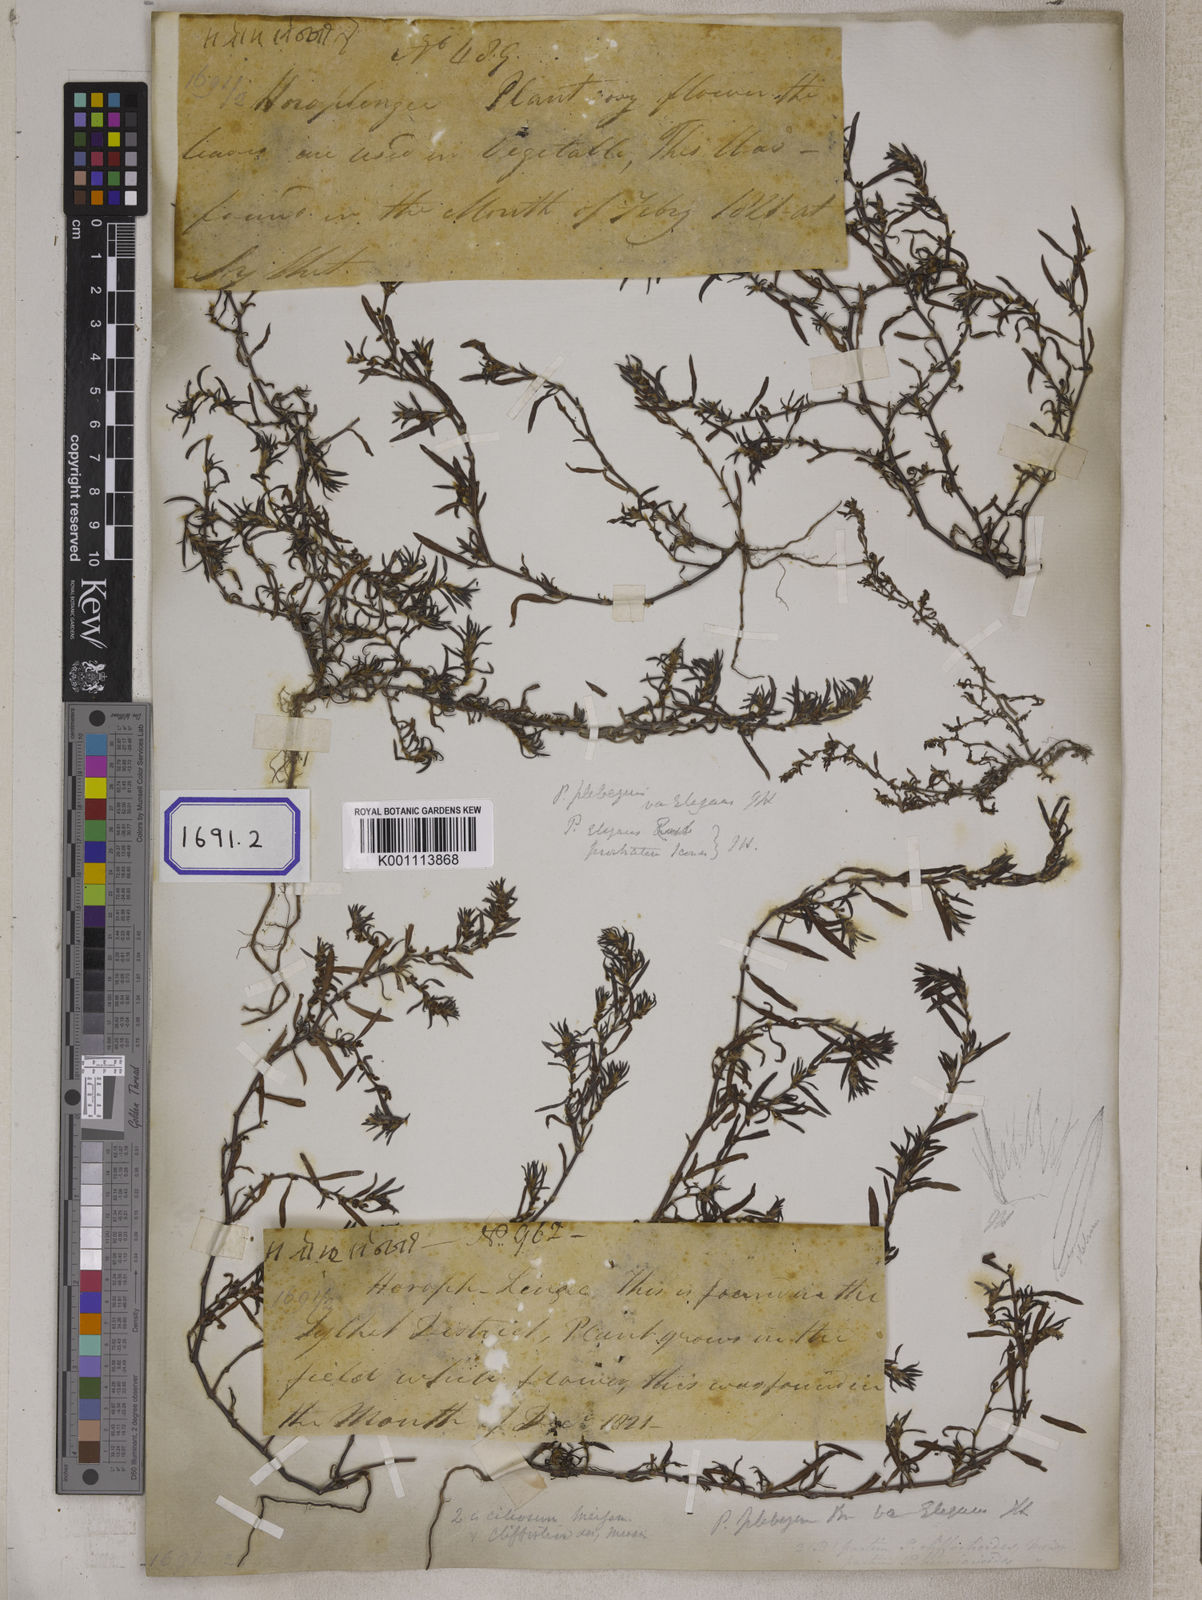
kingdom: Plantae
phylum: Tracheophyta
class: Magnoliopsida
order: Caryophyllales
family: Polygonaceae
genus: Polygonum
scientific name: Polygonum plebeium
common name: Common knotweed
